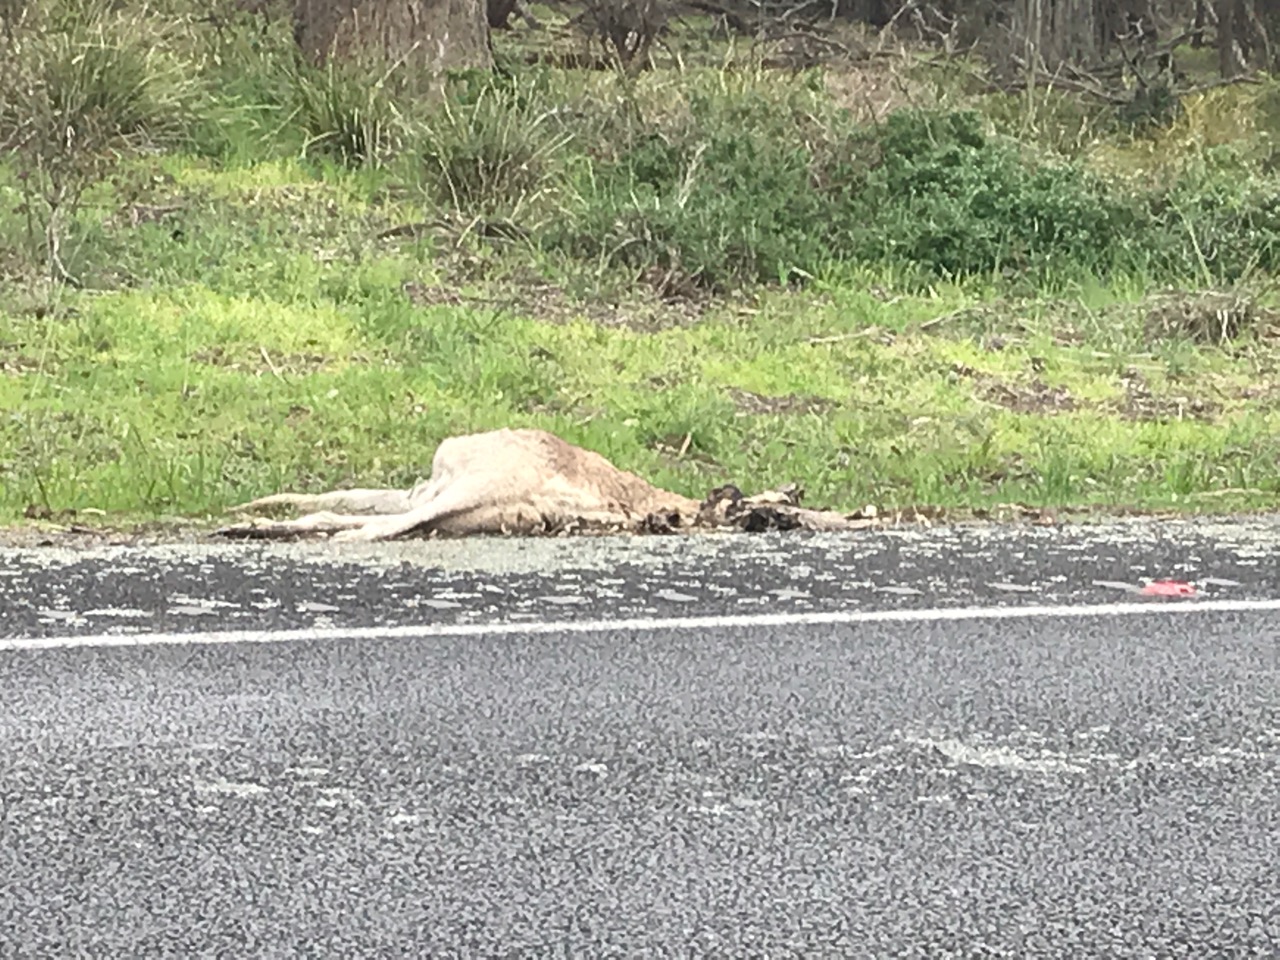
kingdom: Animalia
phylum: Chordata
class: Mammalia
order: Diprotodontia
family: Macropodidae
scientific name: Macropodidae
